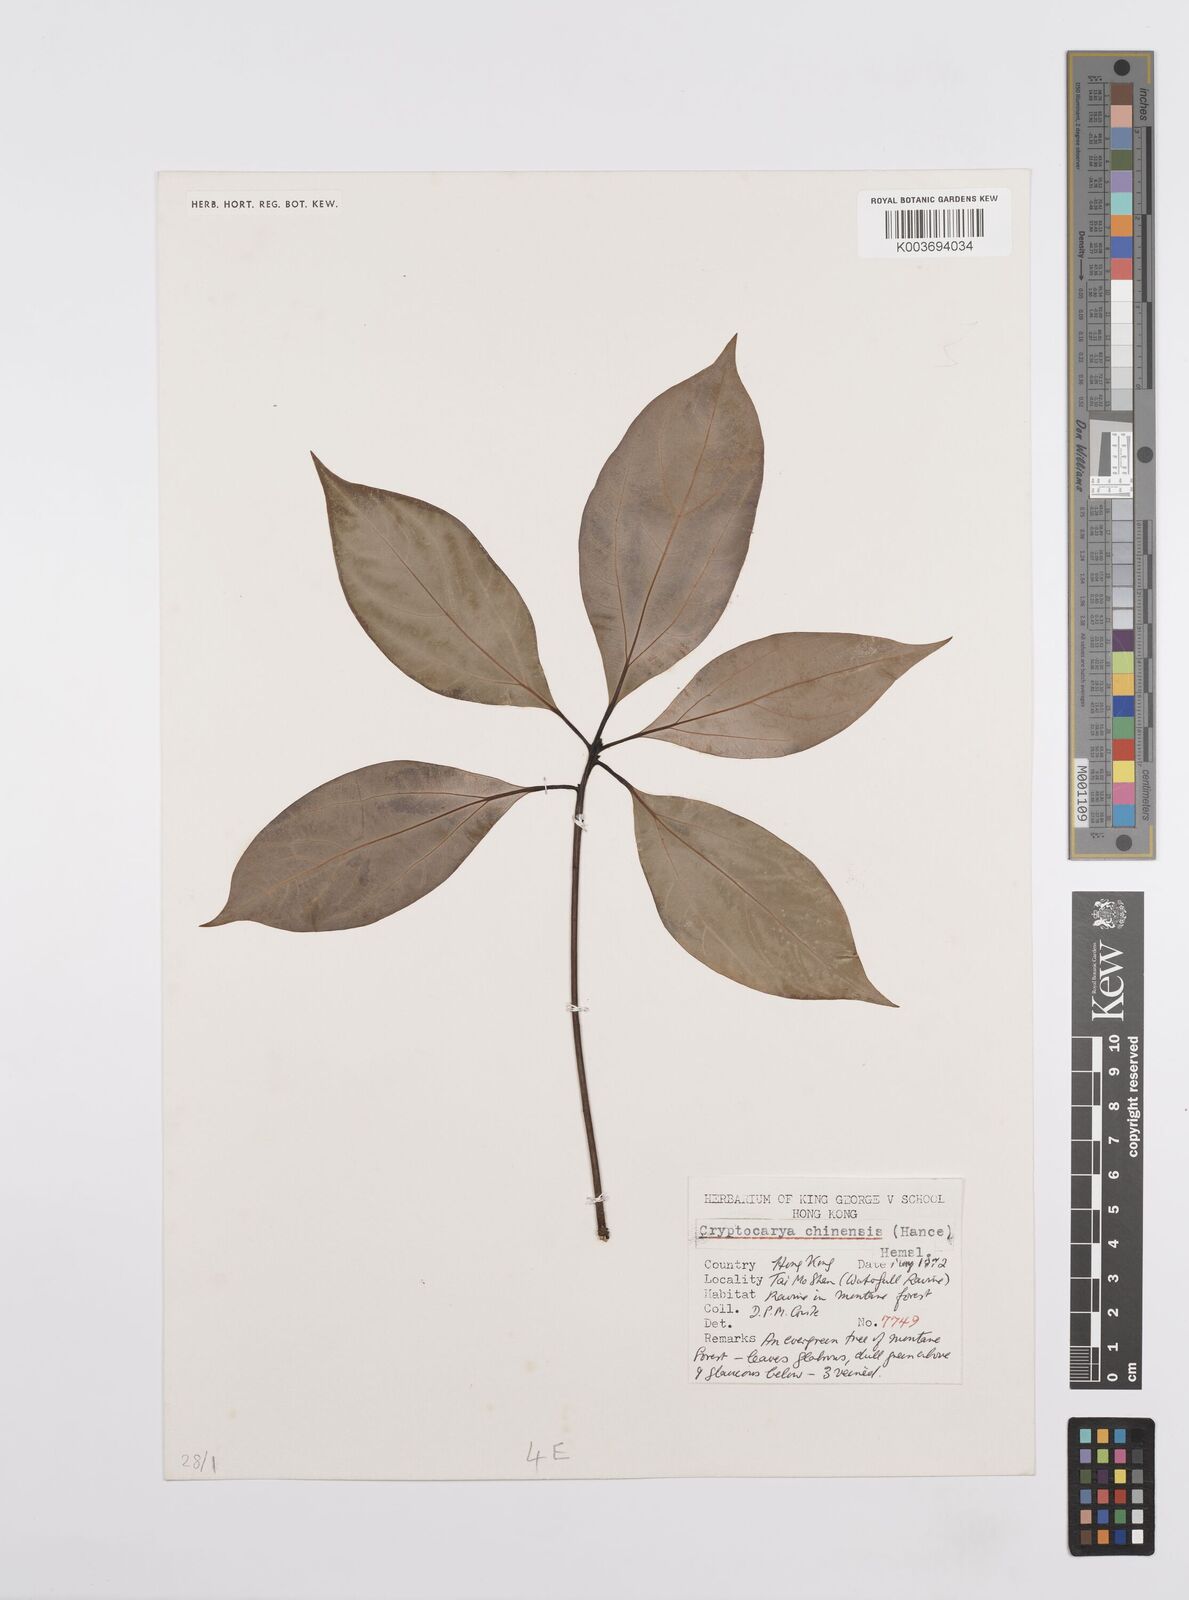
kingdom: Plantae
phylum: Tracheophyta
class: Magnoliopsida
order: Laurales
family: Lauraceae
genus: Cryptocarya
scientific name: Cryptocarya chinensis
